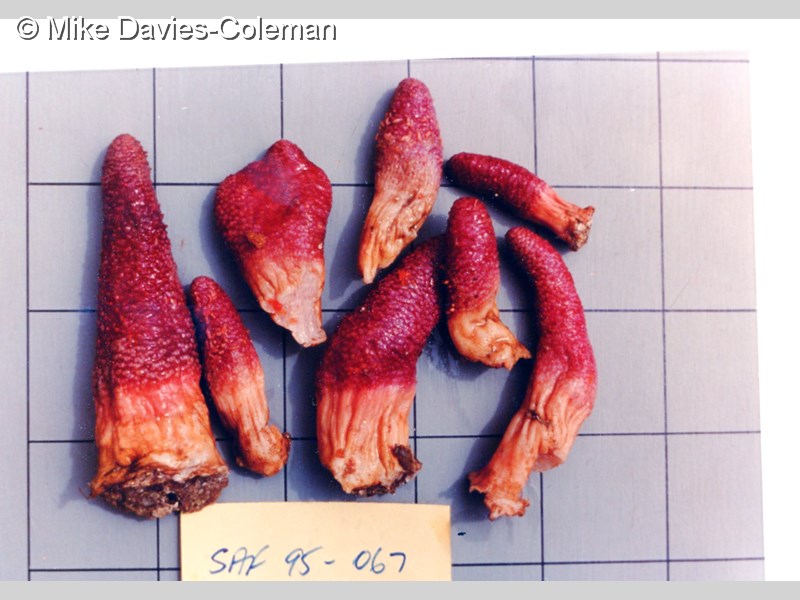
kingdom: Animalia
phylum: Cnidaria
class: Anthozoa
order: Malacalcyonacea
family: Acrophytidae
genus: Pieterfaurea
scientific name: Pieterfaurea
